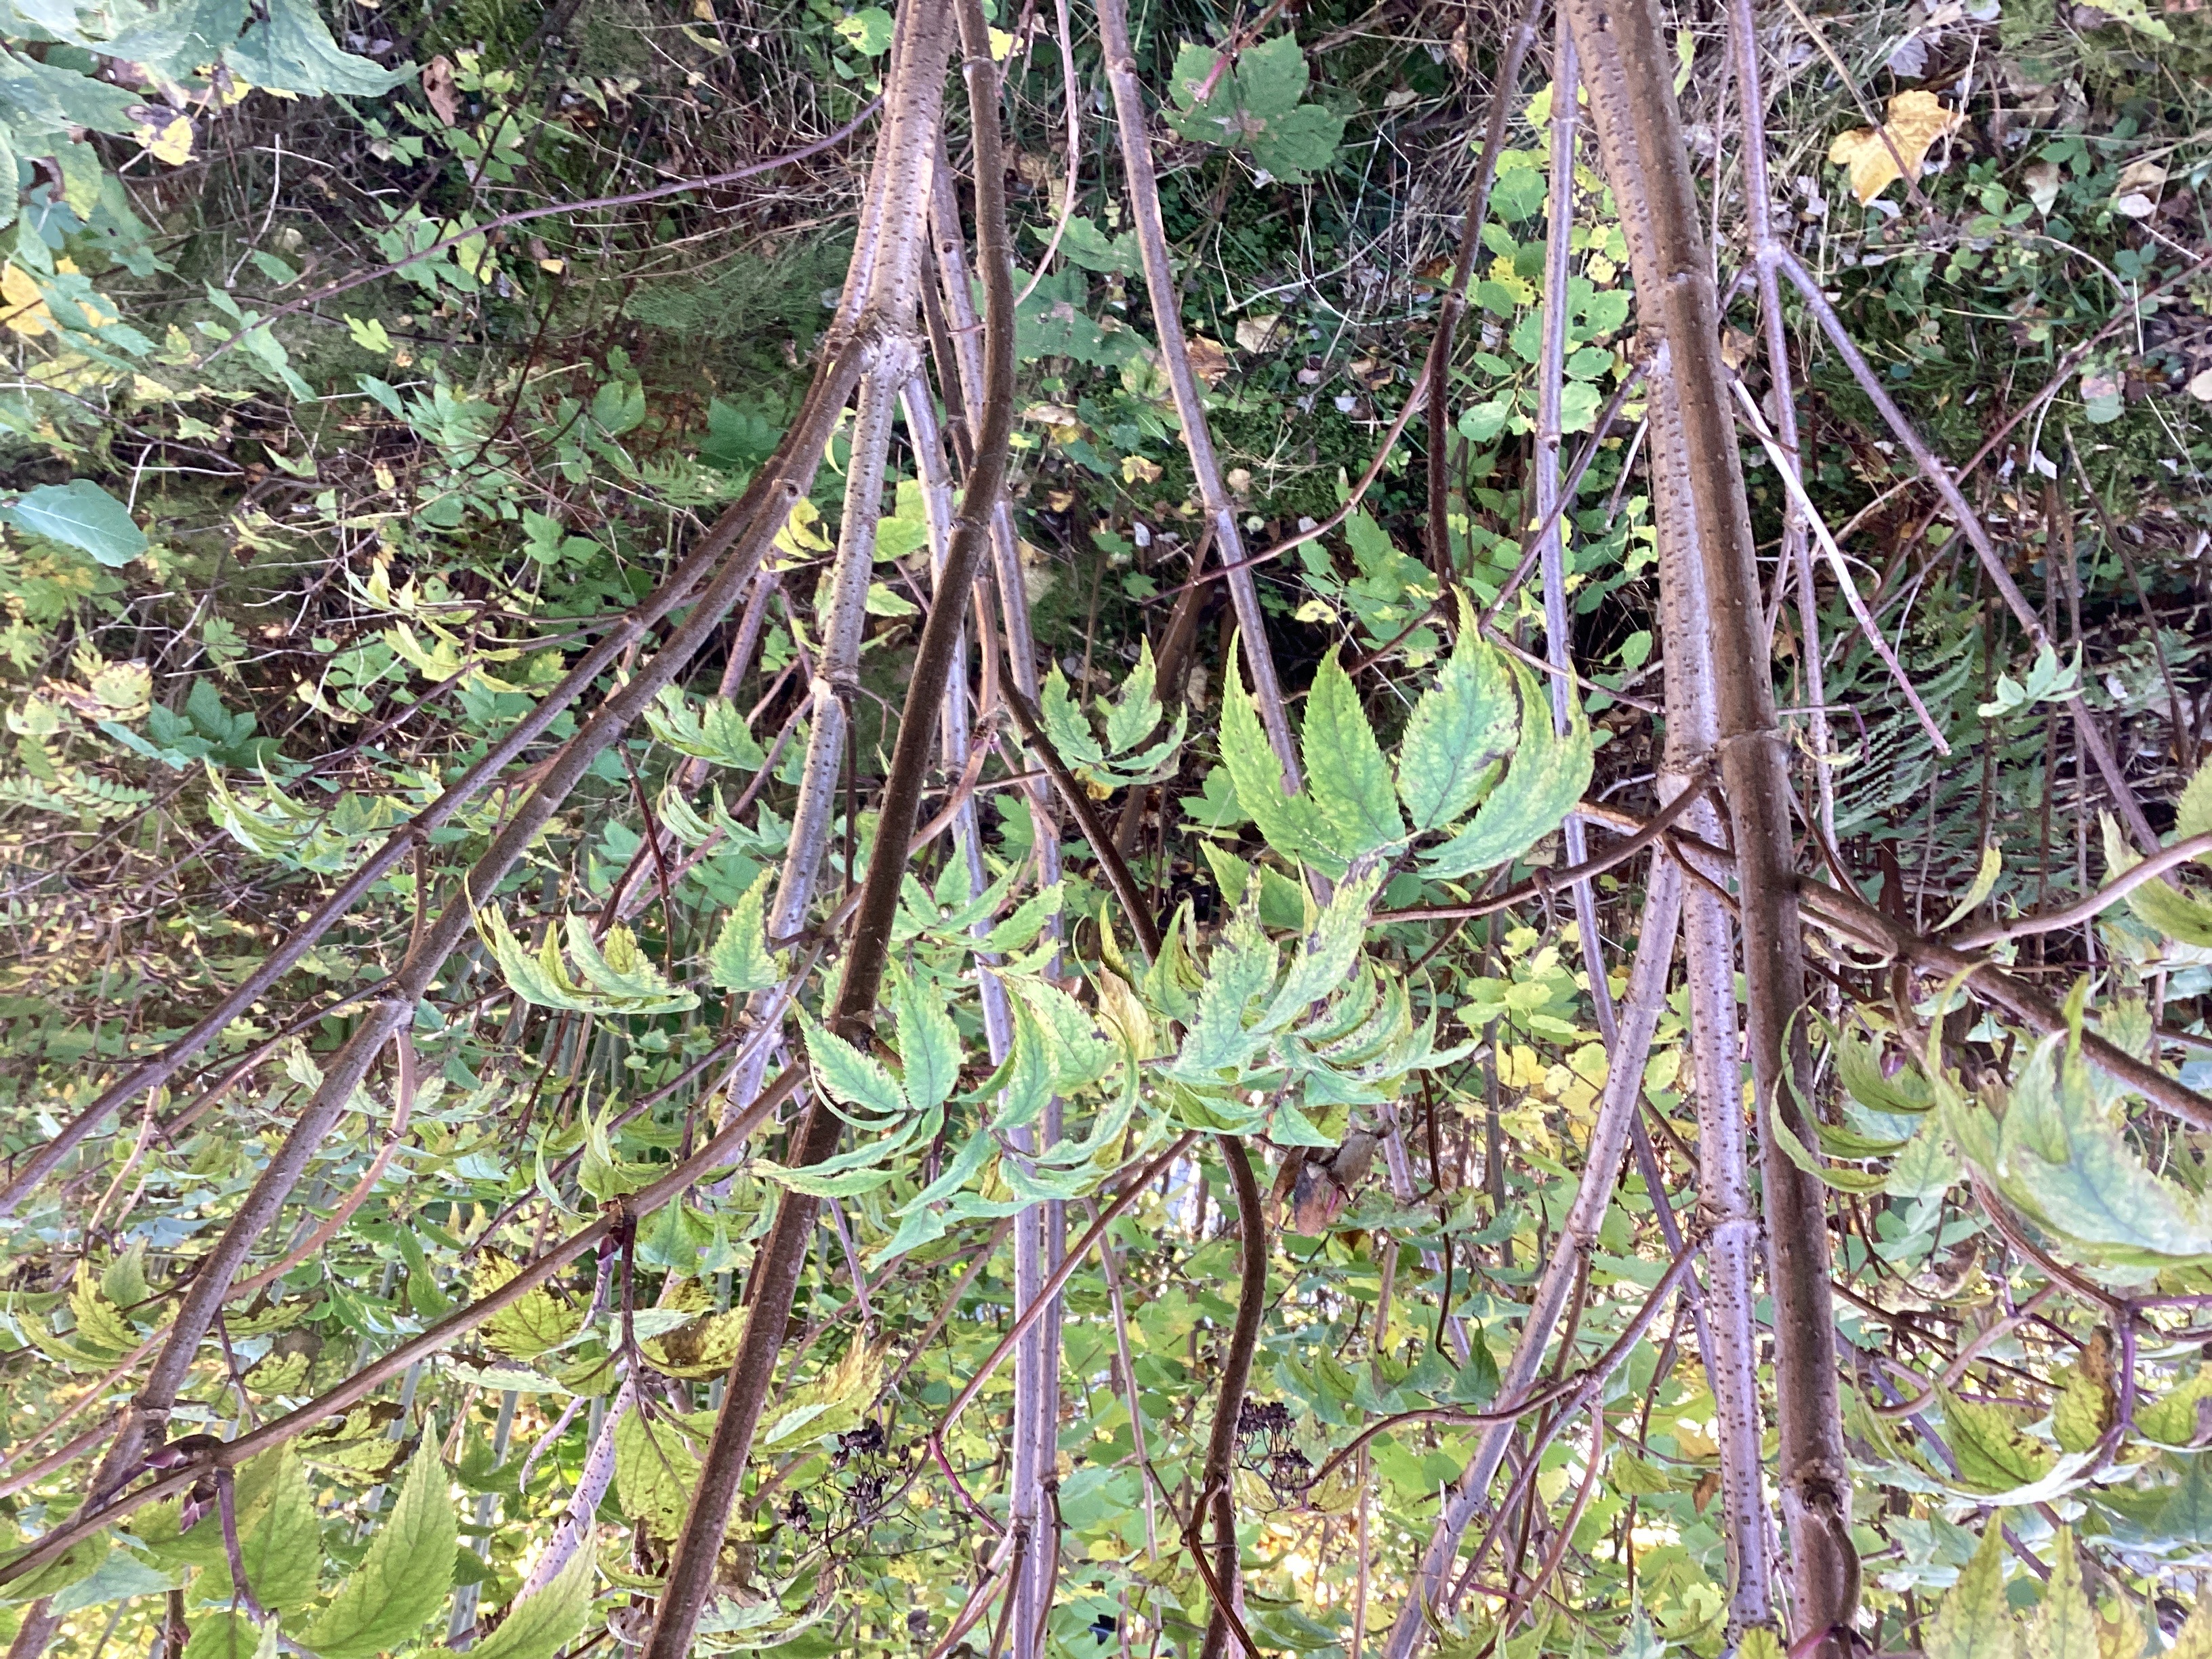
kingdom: Plantae
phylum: Tracheophyta
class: Magnoliopsida
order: Dipsacales
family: Viburnaceae
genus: Sambucus
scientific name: Sambucus racemosa
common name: rødhyll
